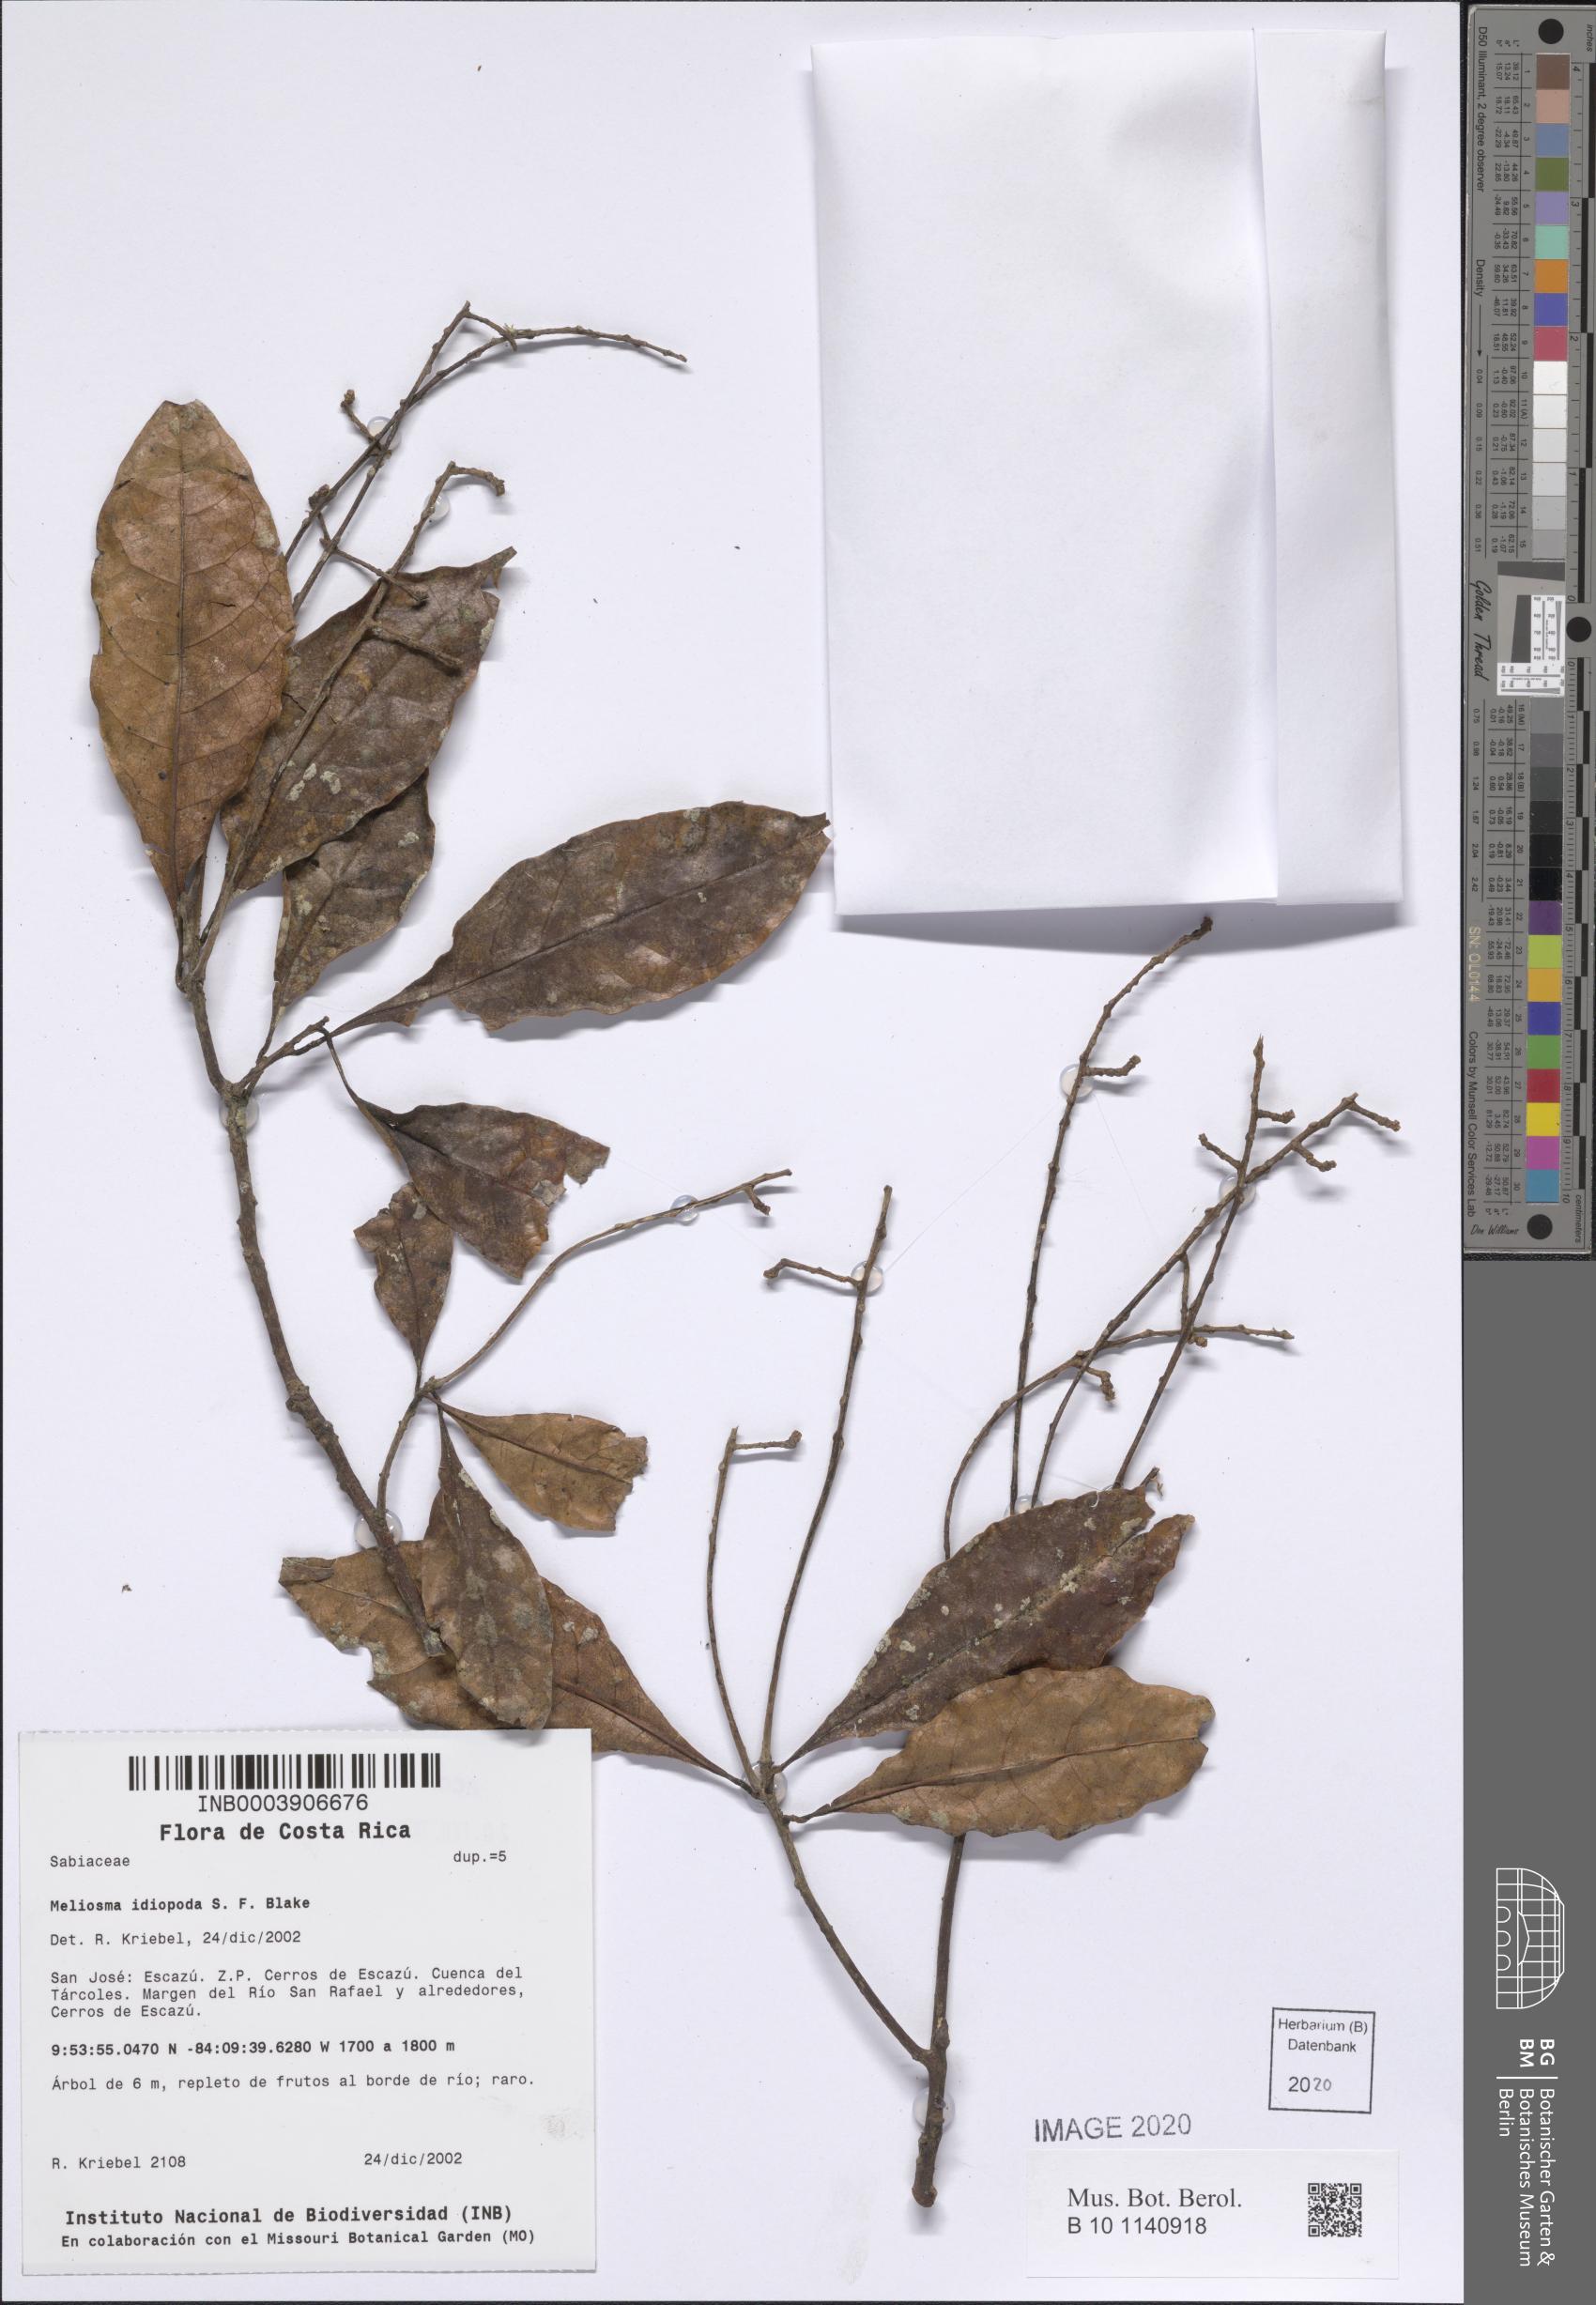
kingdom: Plantae
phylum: Tracheophyta
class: Magnoliopsida
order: Proteales
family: Sabiaceae
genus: Meliosma
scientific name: Meliosma idiopoda
